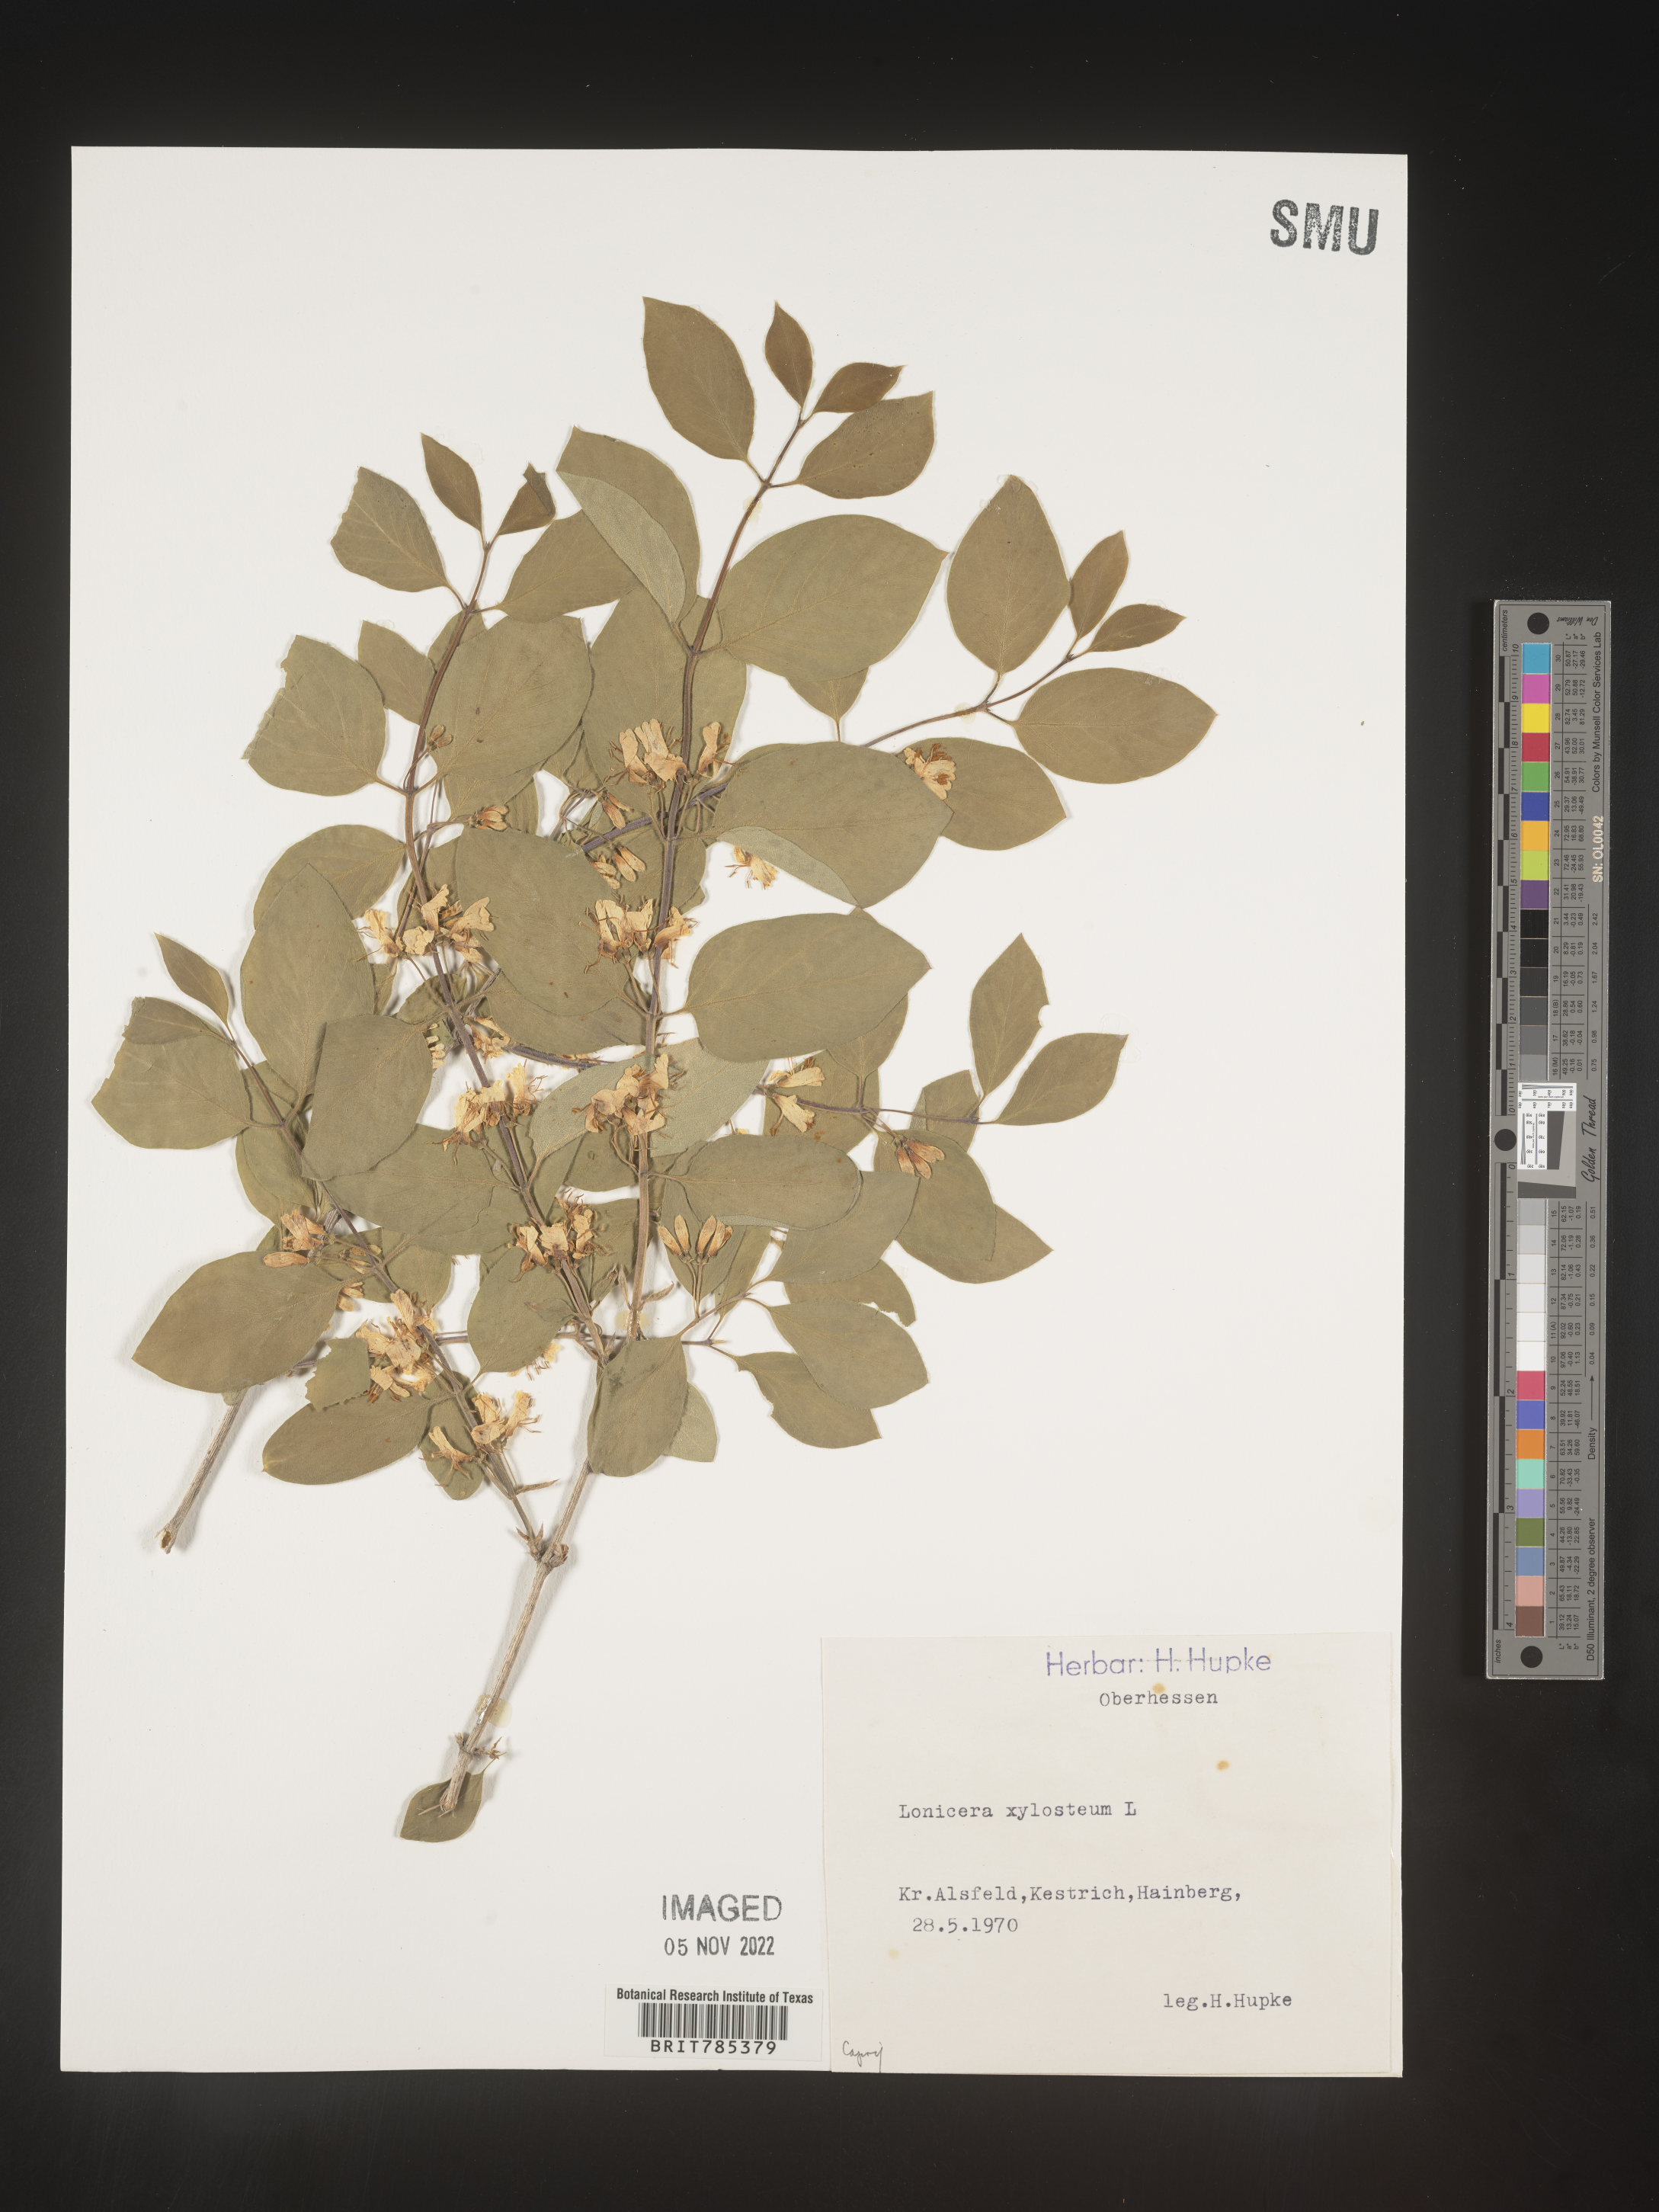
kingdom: Plantae
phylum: Tracheophyta
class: Magnoliopsida
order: Dipsacales
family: Caprifoliaceae
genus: Lonicera
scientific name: Lonicera
